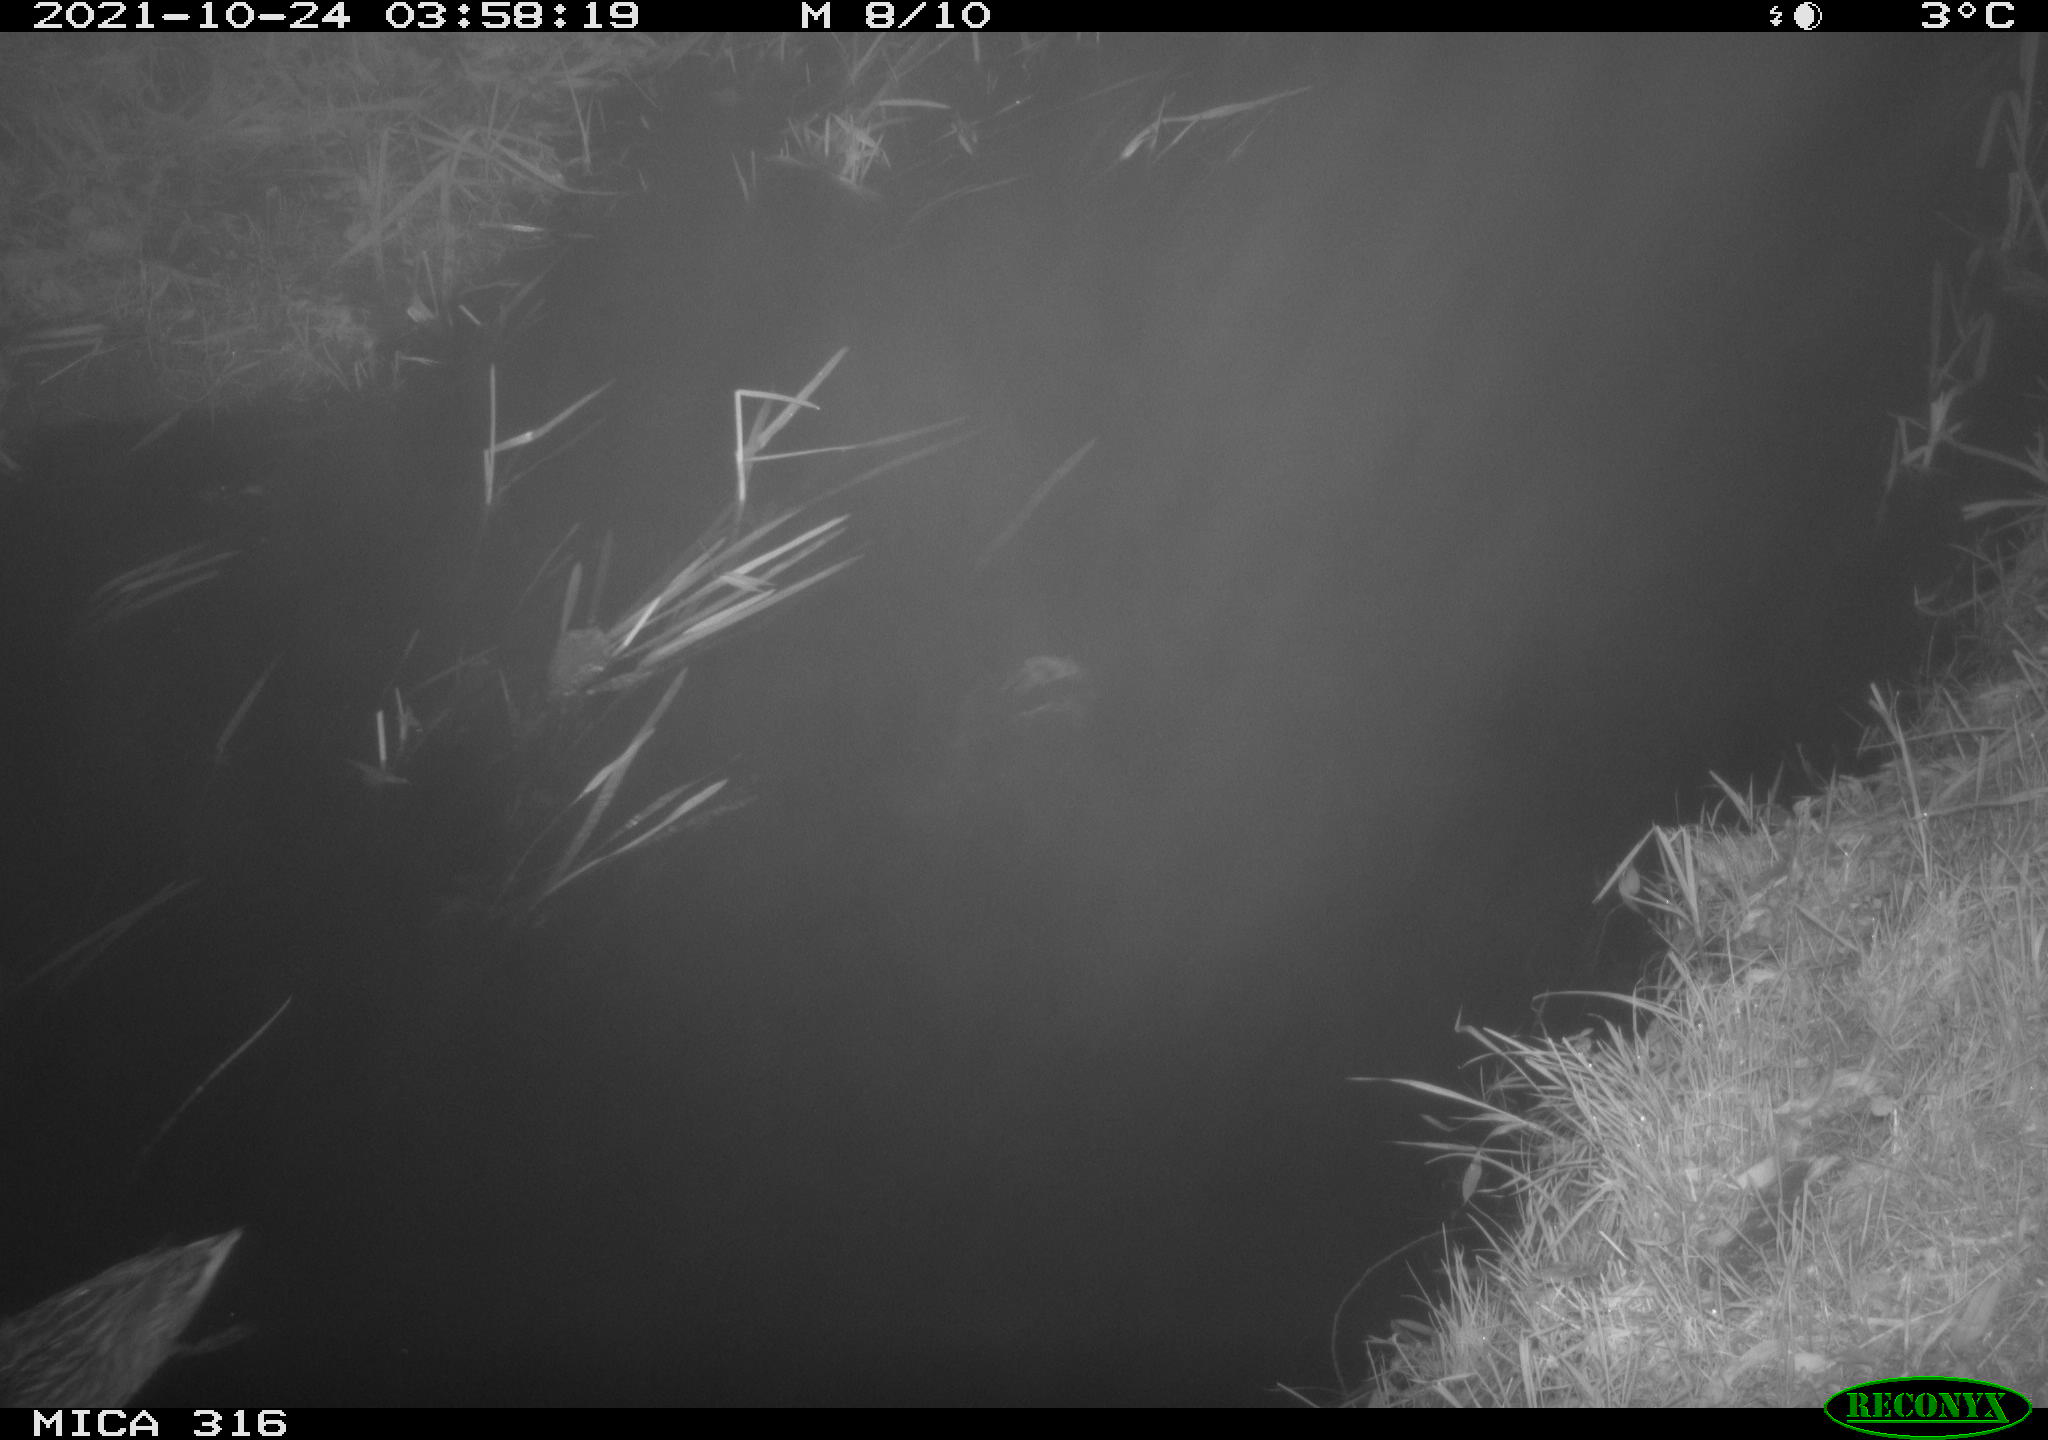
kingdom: Animalia
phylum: Chordata
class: Aves
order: Anseriformes
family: Anatidae
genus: Mareca
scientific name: Mareca strepera
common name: Gadwall
